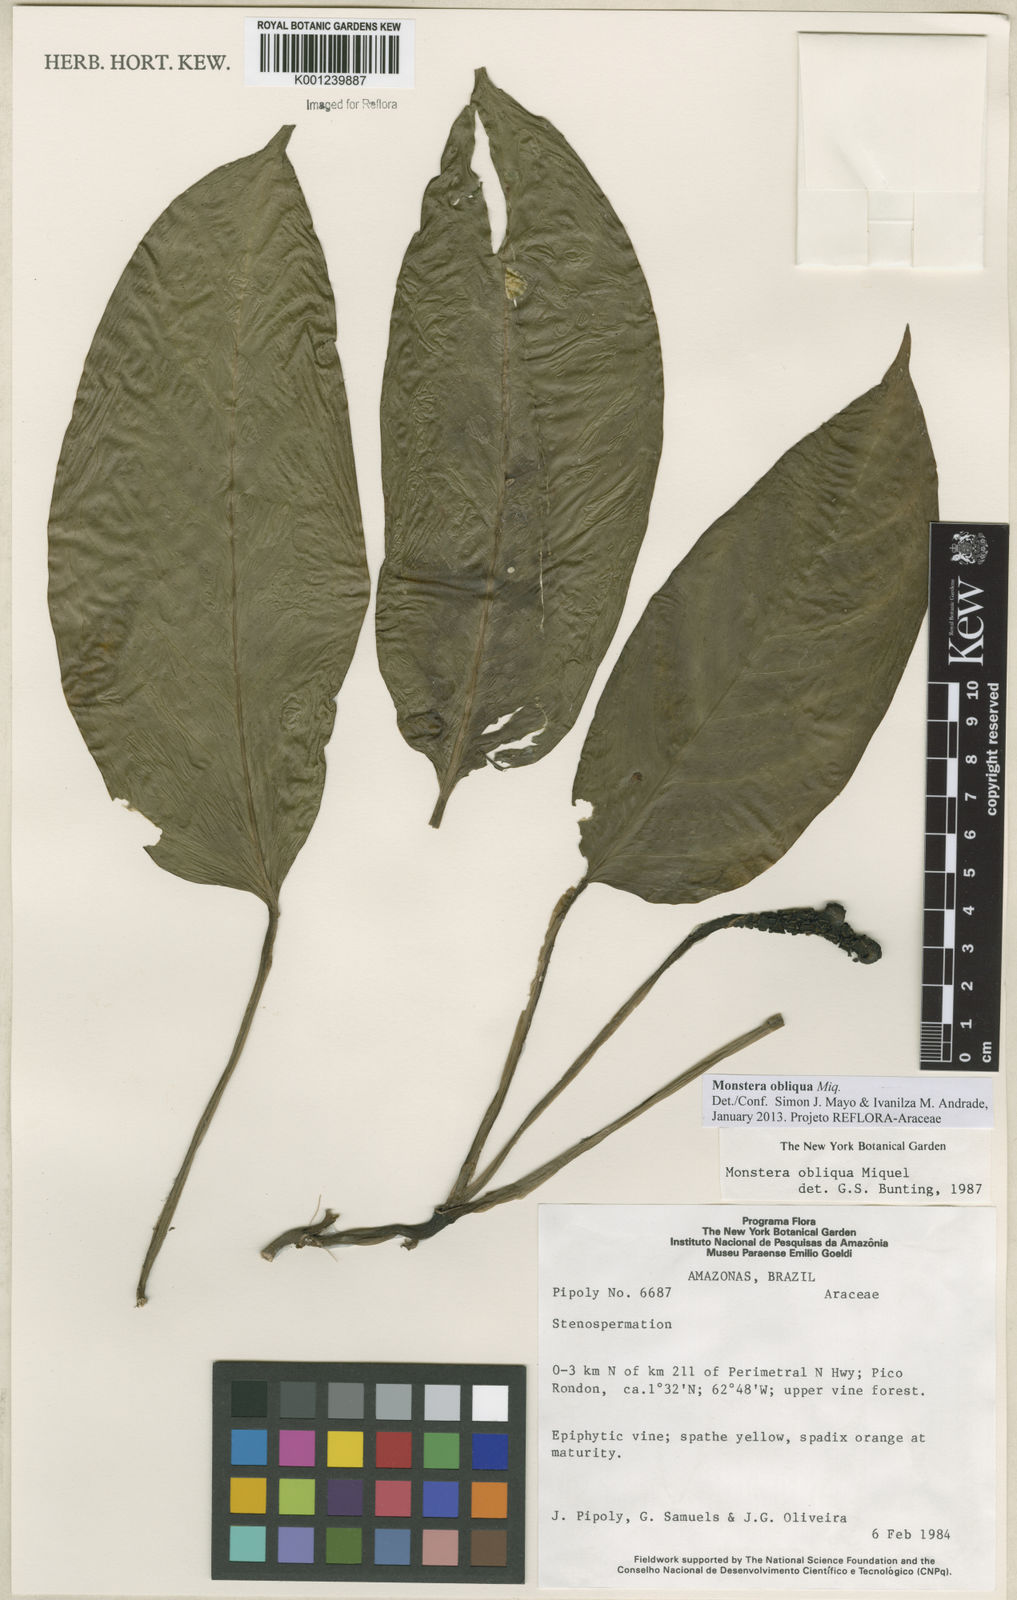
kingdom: Plantae
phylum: Tracheophyta
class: Liliopsida
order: Alismatales
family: Araceae
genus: Monstera
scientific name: Monstera obliqua
